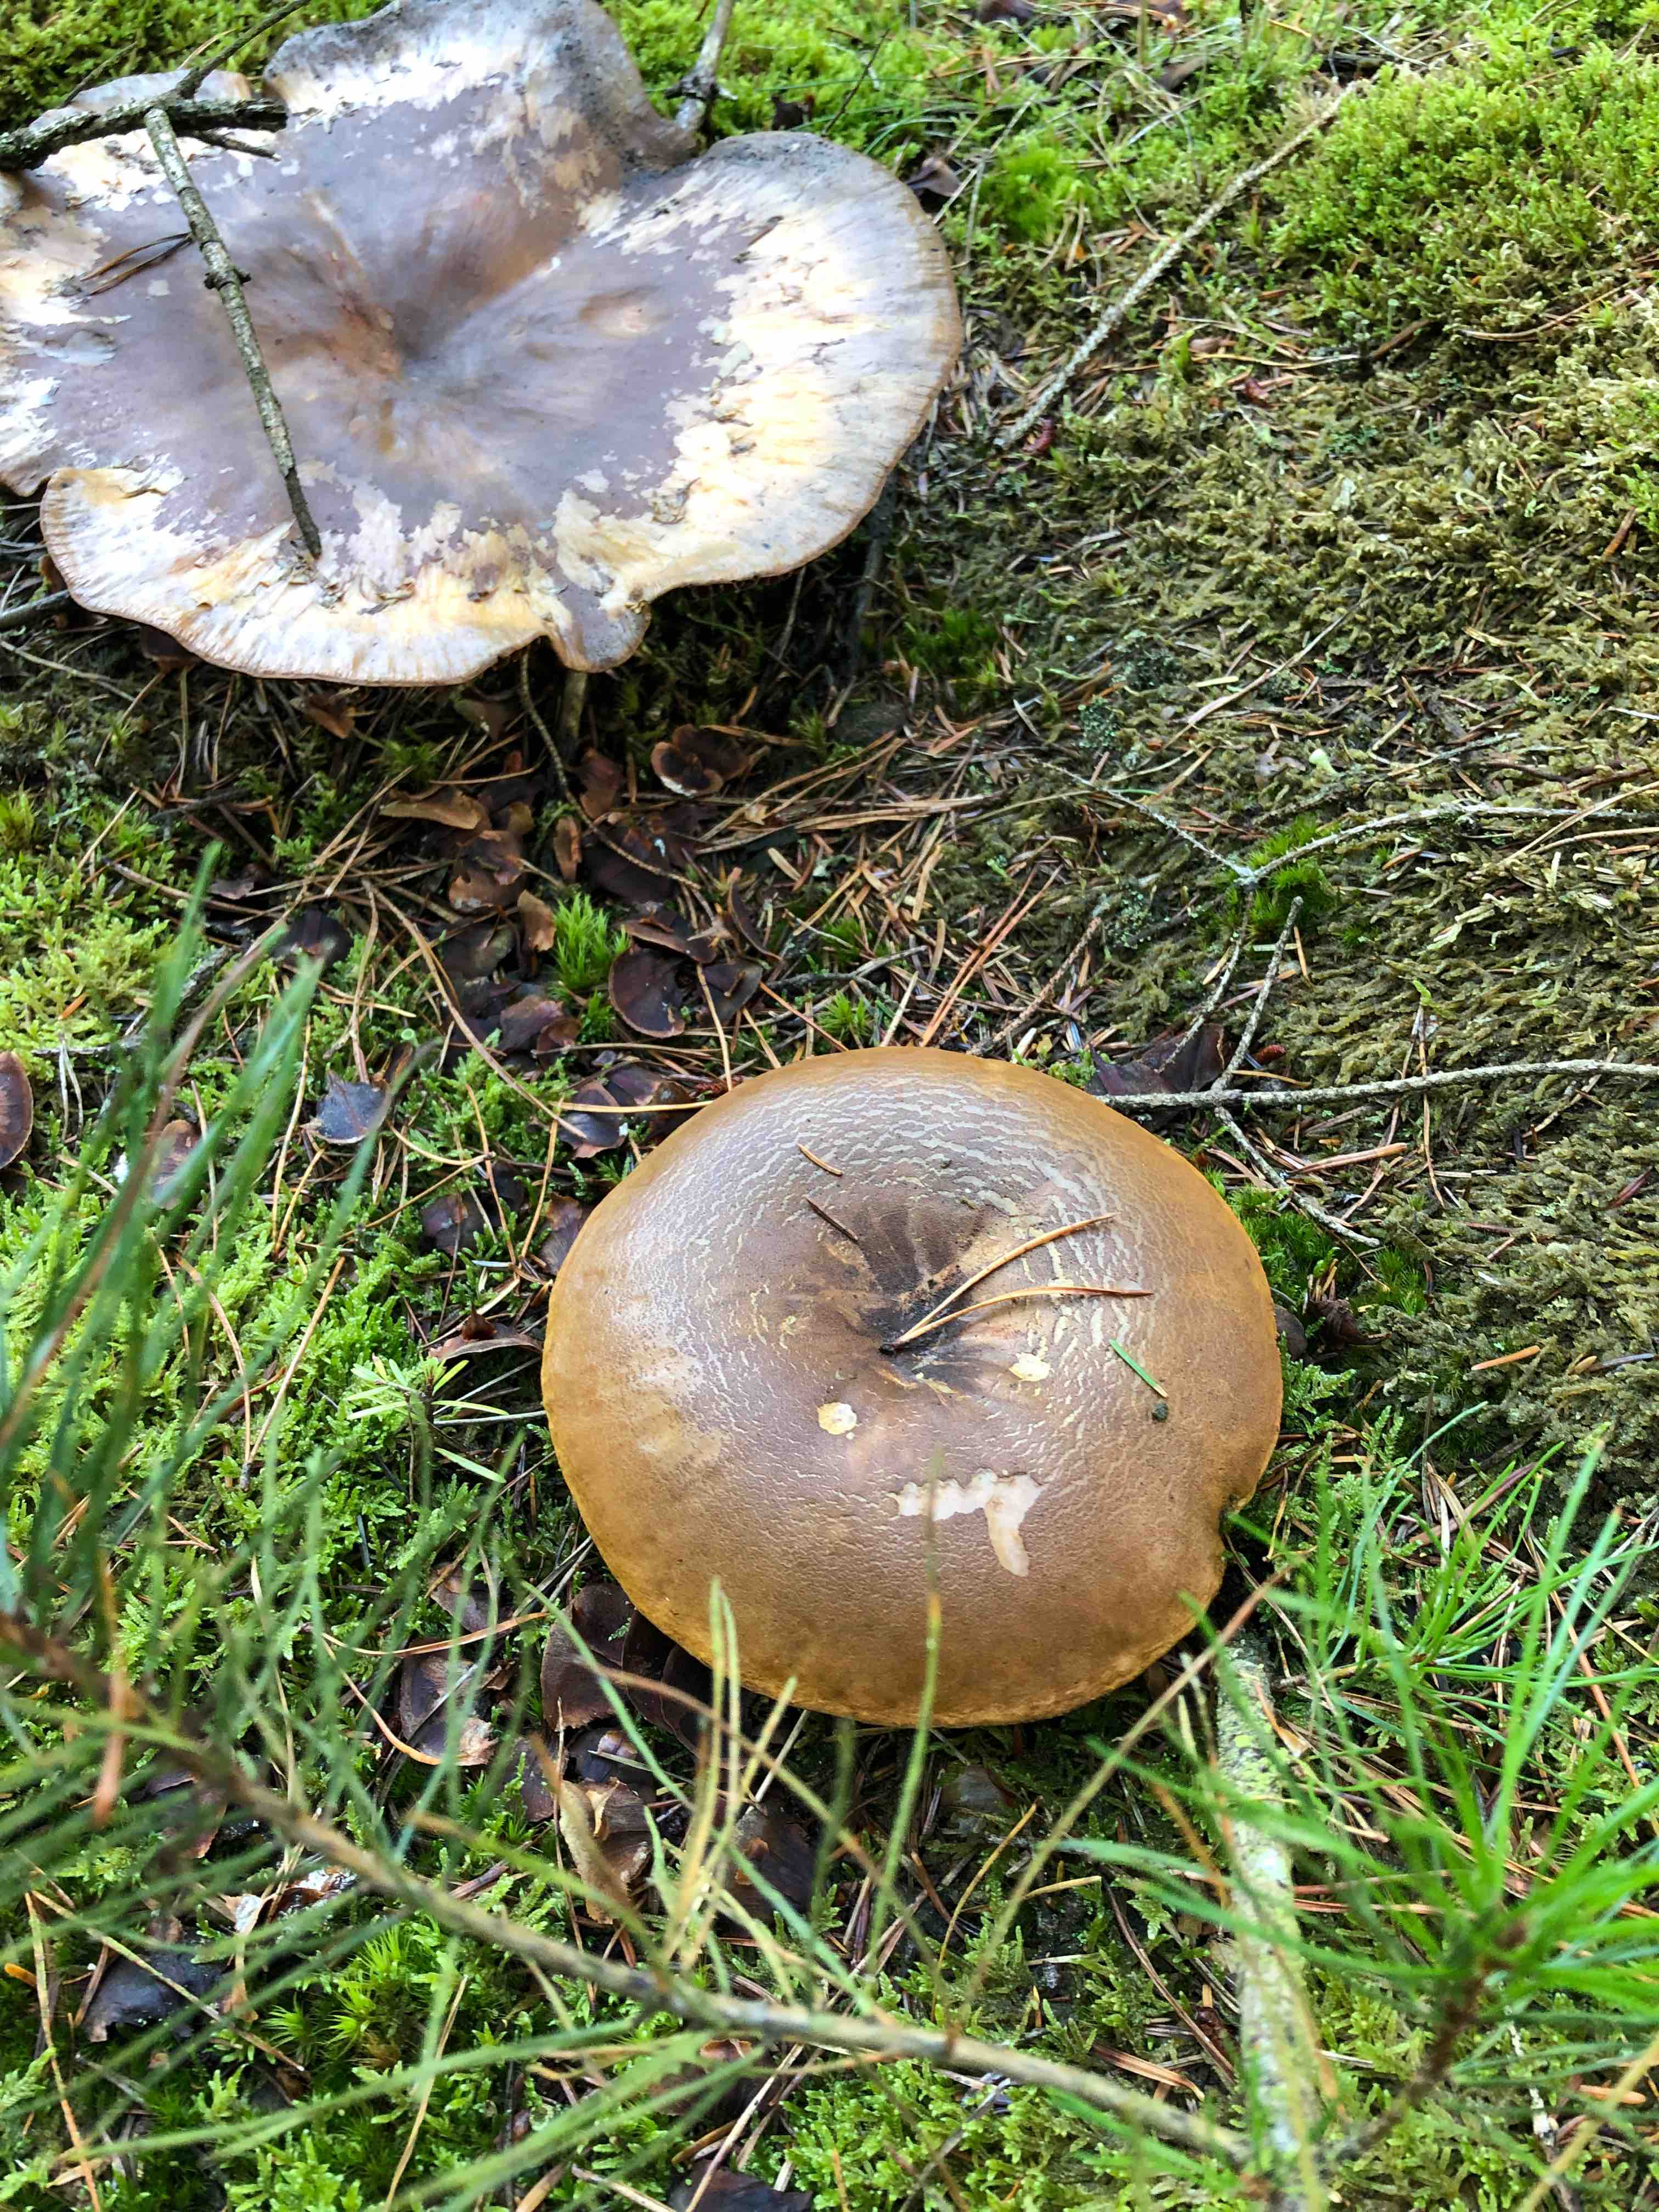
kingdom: Fungi
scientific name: Fungi
